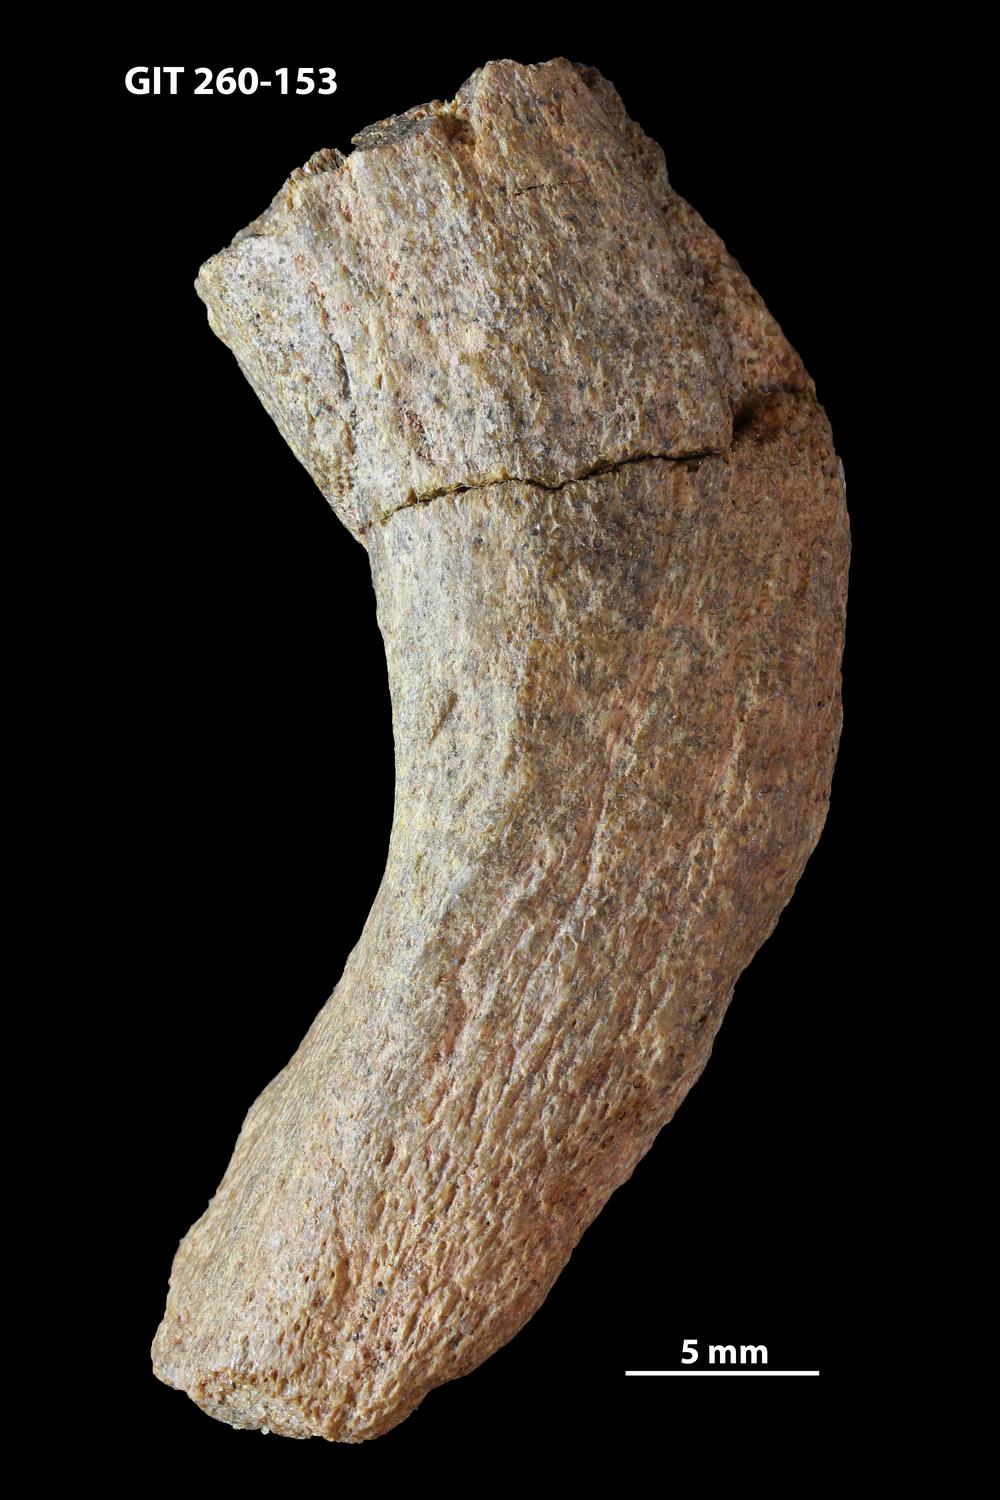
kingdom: Animalia
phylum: Chordata
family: Homostiidae
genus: Homostius
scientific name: Homostius
